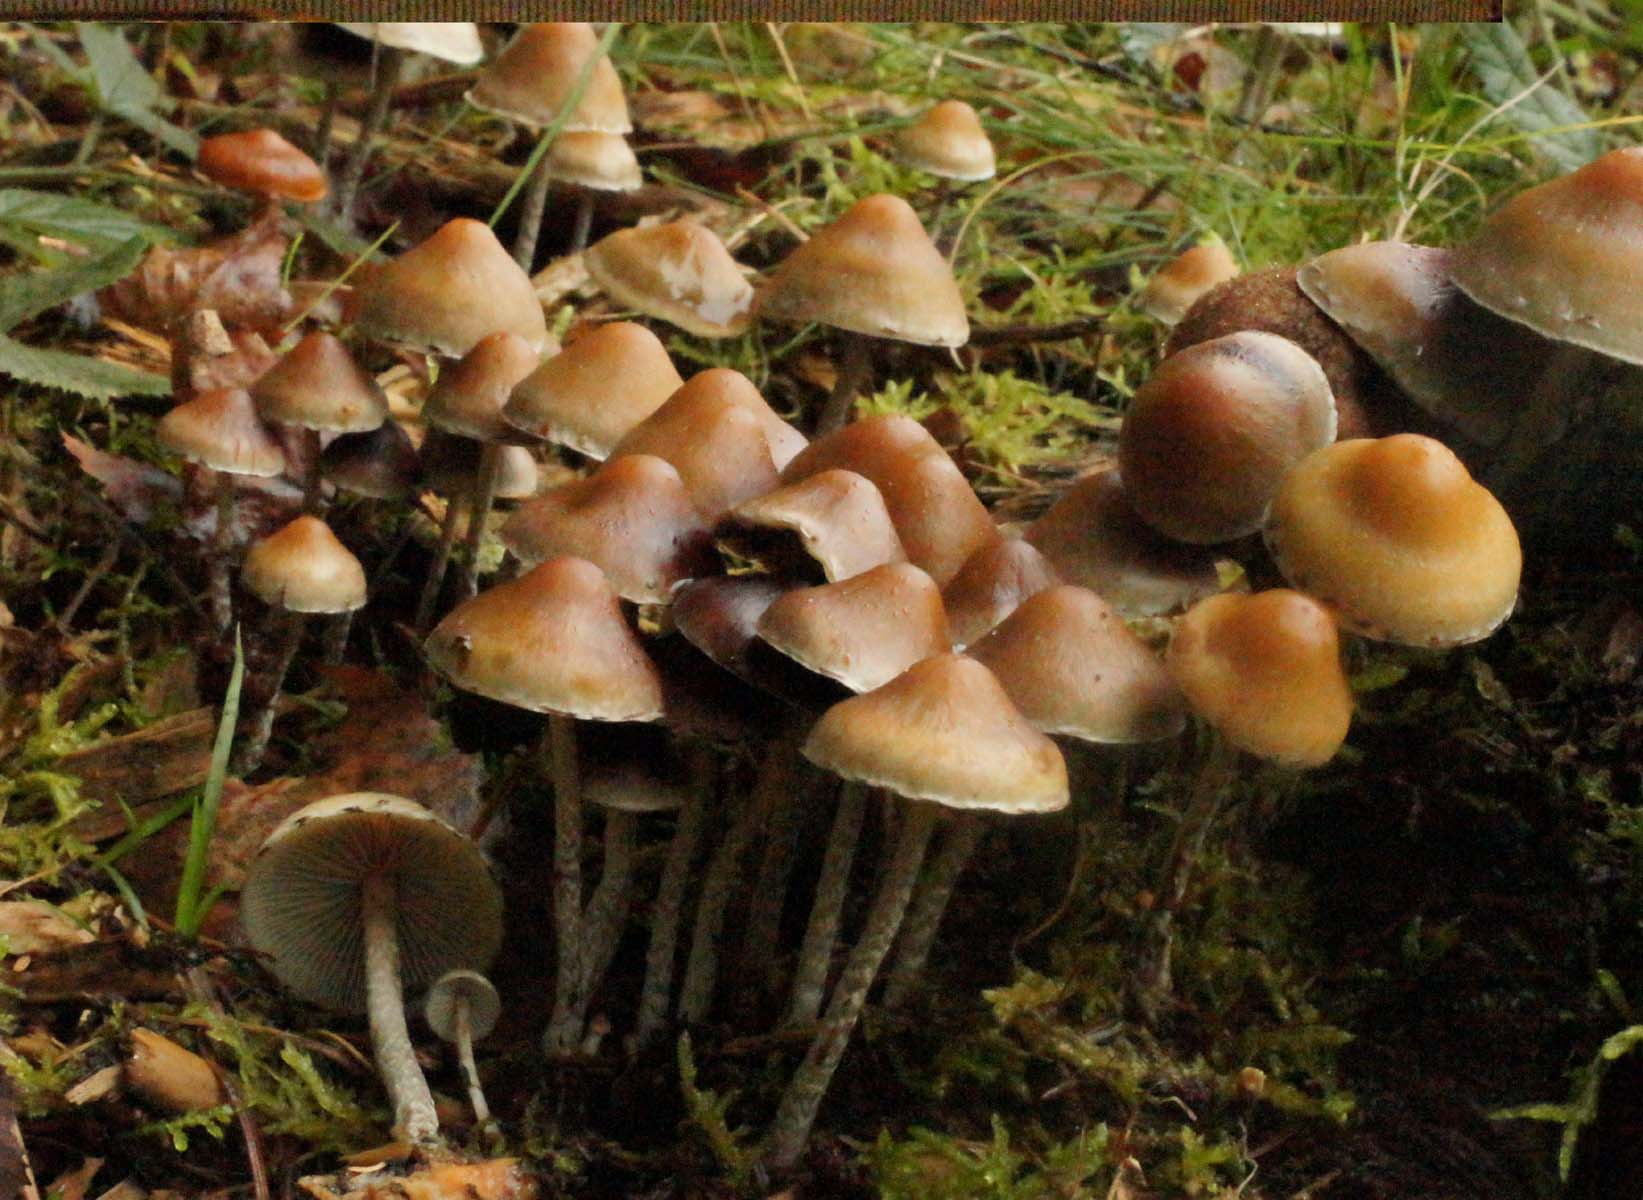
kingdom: Fungi
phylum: Basidiomycota
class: Agaricomycetes
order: Agaricales
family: Strophariaceae
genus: Hypholoma
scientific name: Hypholoma marginatum
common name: enlig svovlhat
